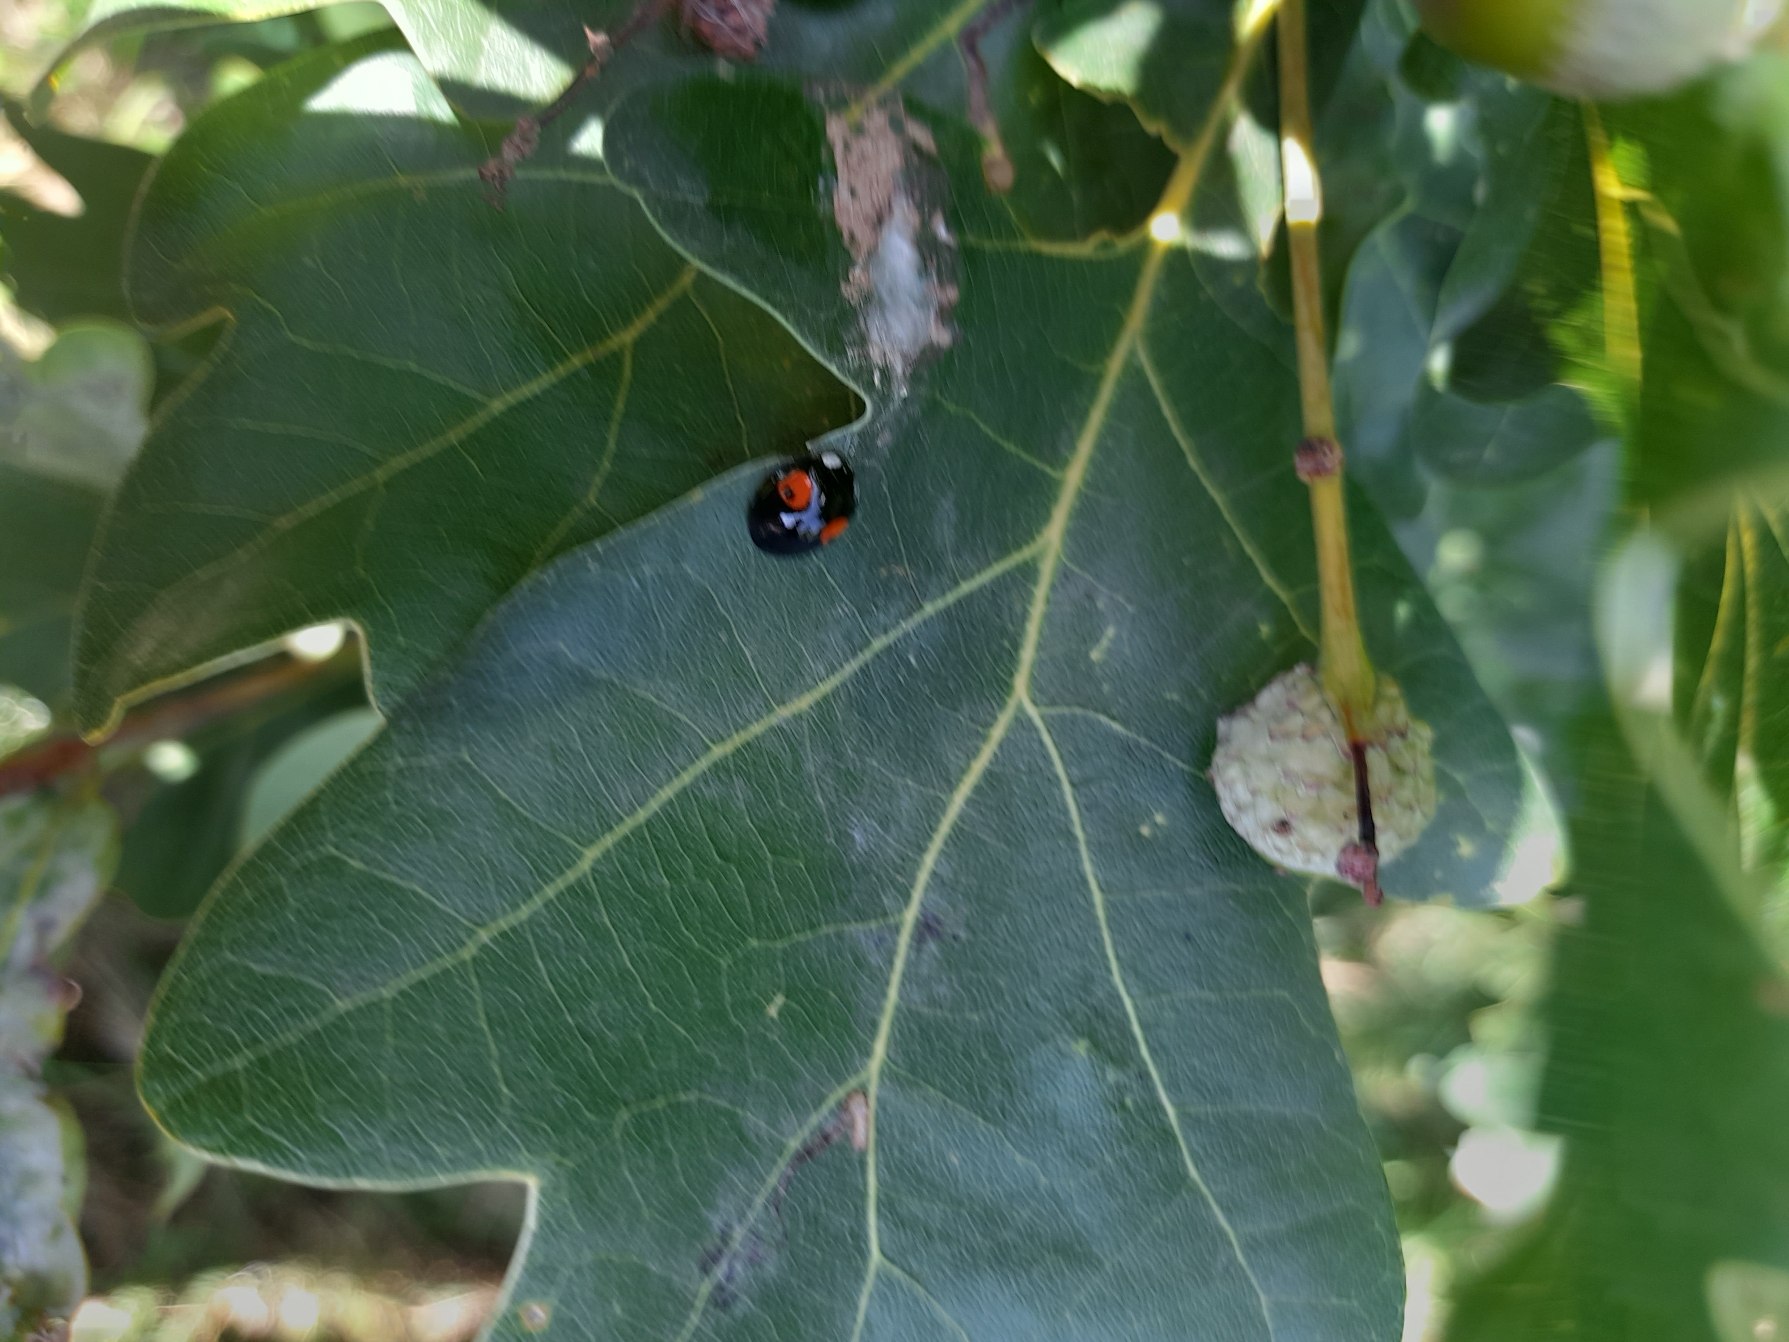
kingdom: Animalia
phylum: Arthropoda
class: Insecta
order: Coleoptera
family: Coccinellidae
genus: Harmonia
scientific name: Harmonia axyridis
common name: Harlekinmariehøne
